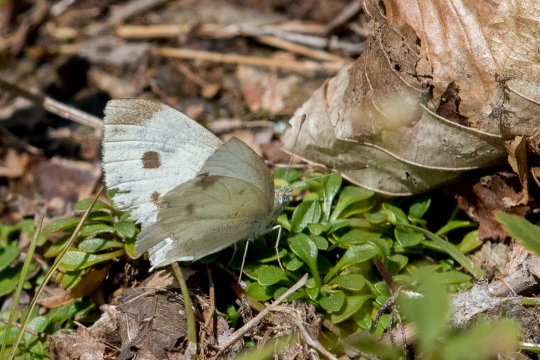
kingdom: Animalia
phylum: Arthropoda
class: Insecta
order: Lepidoptera
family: Pieridae
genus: Pieris
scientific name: Pieris rapae
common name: Cabbage White
